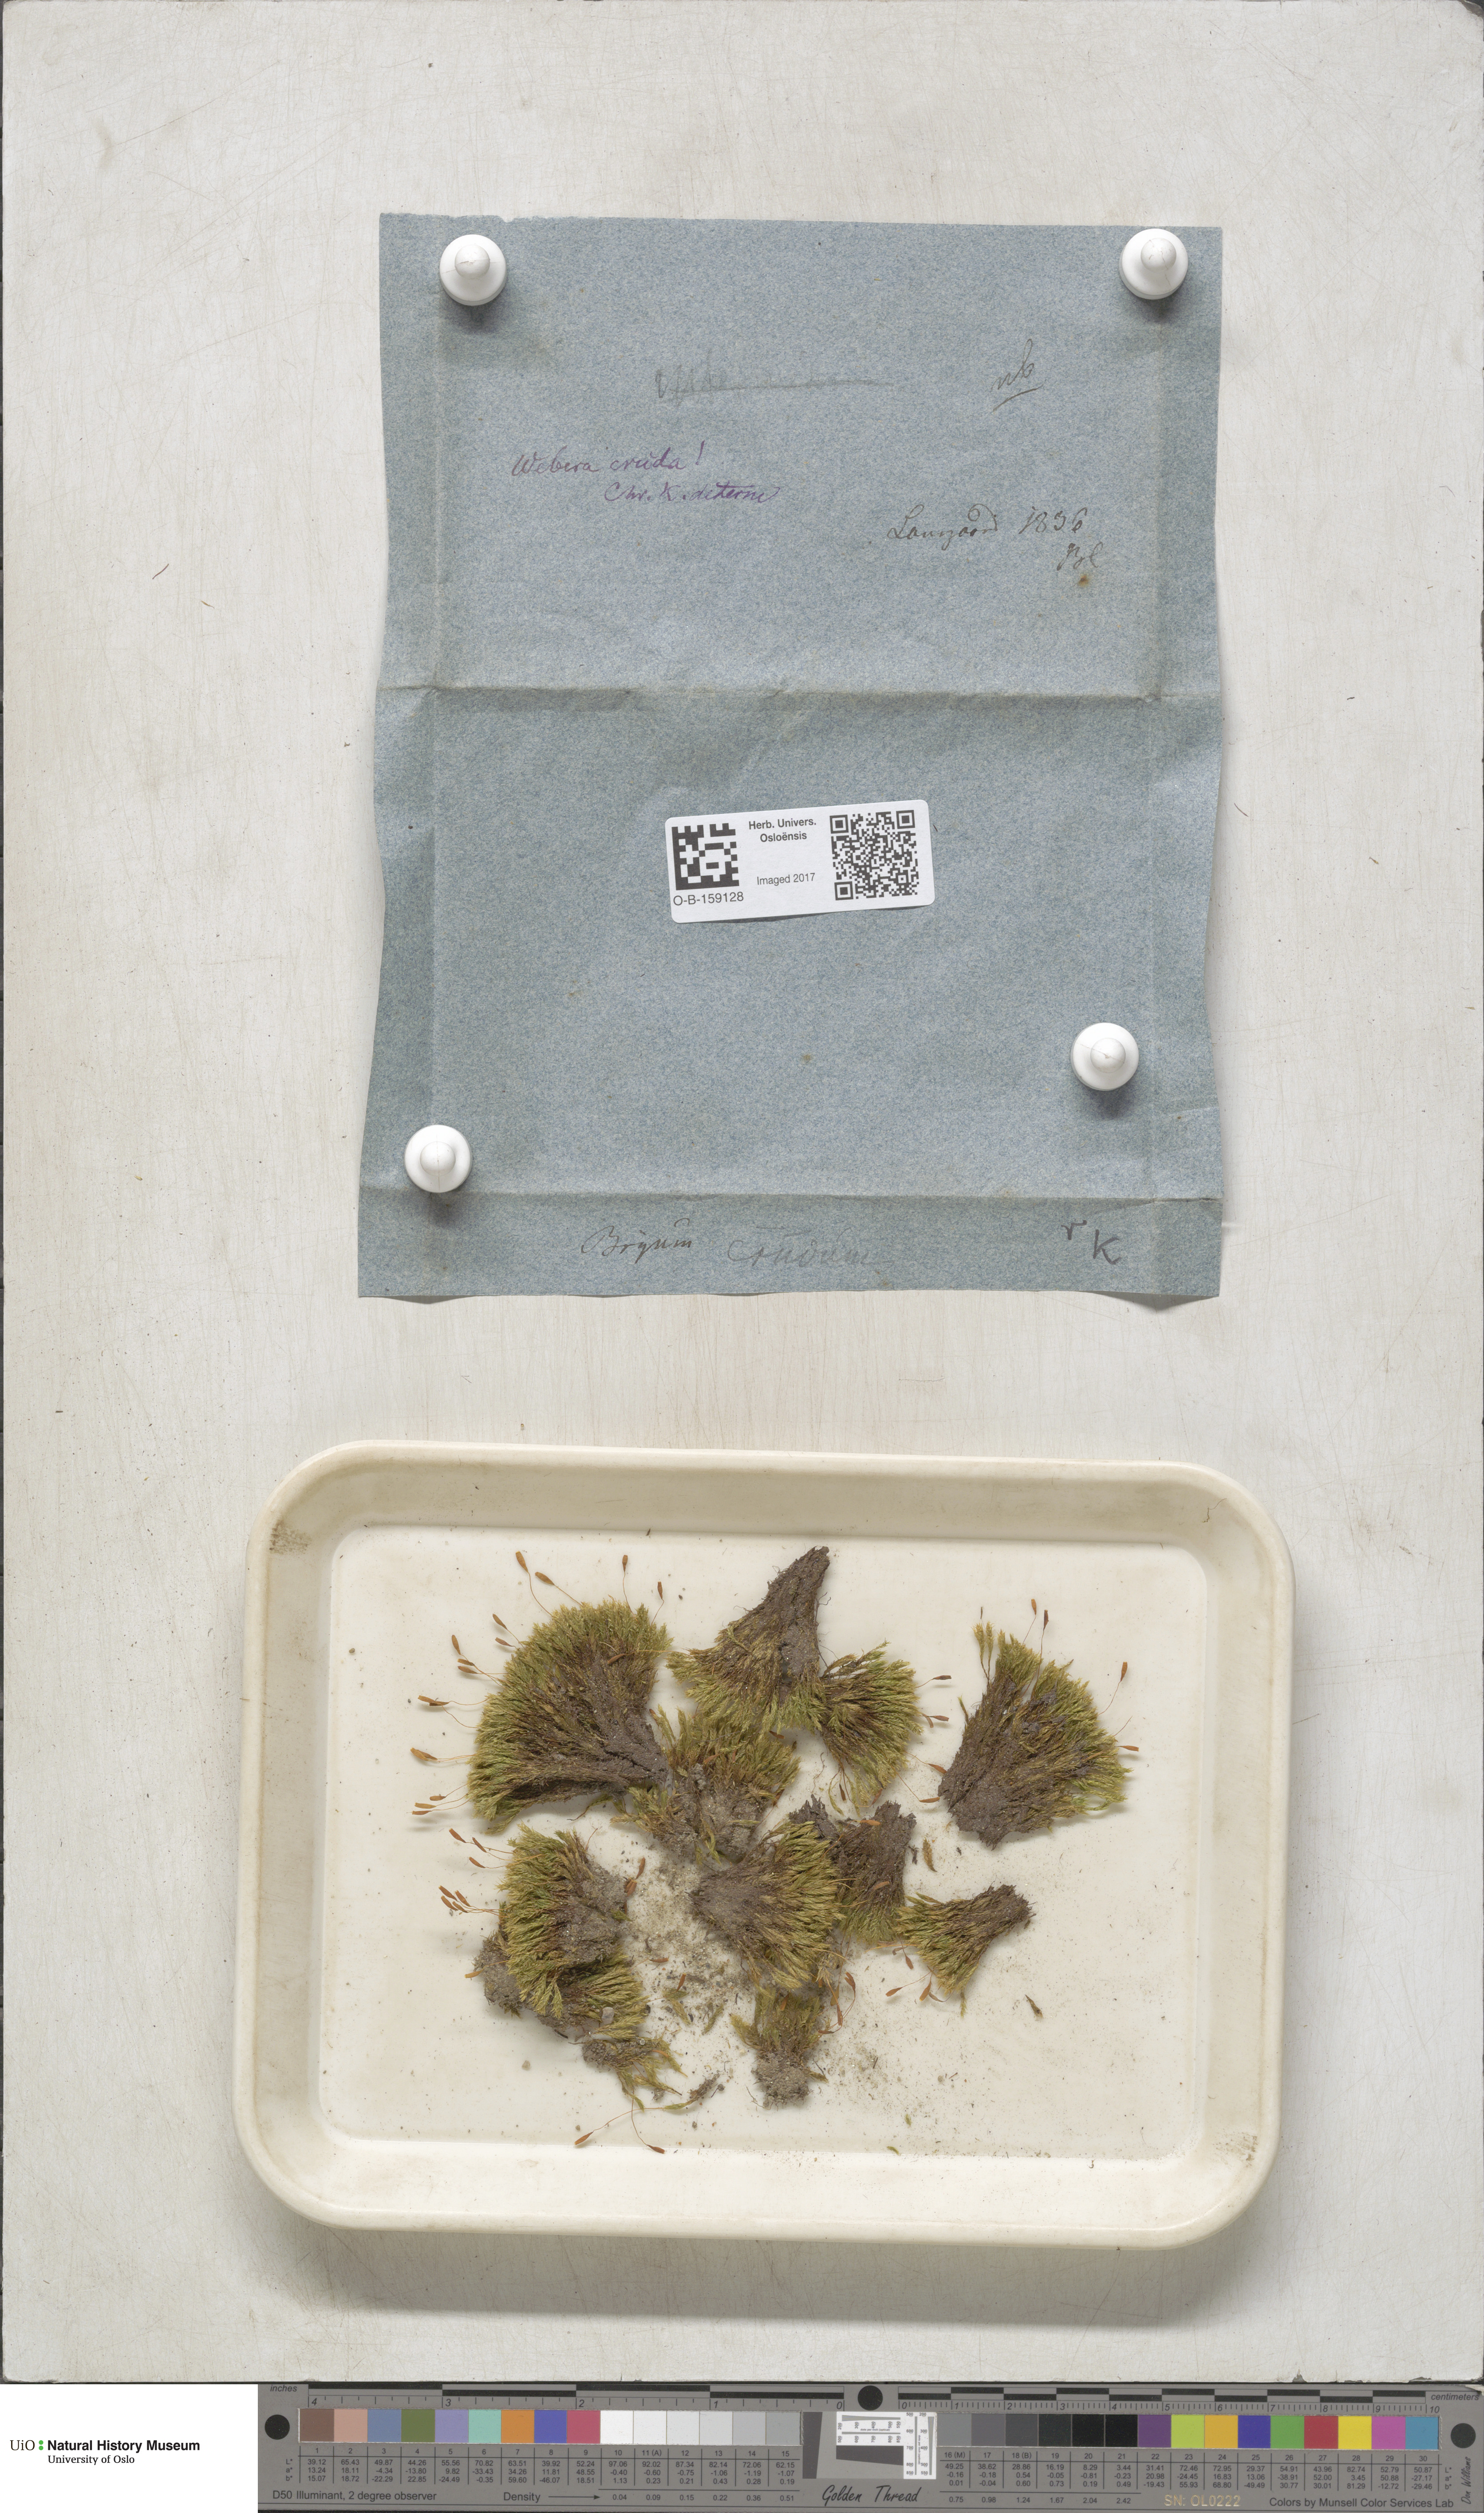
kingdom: Plantae
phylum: Bryophyta
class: Bryopsida
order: Bryales
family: Mniaceae
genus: Pohlia
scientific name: Pohlia cruda
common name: Opal nodding moss
